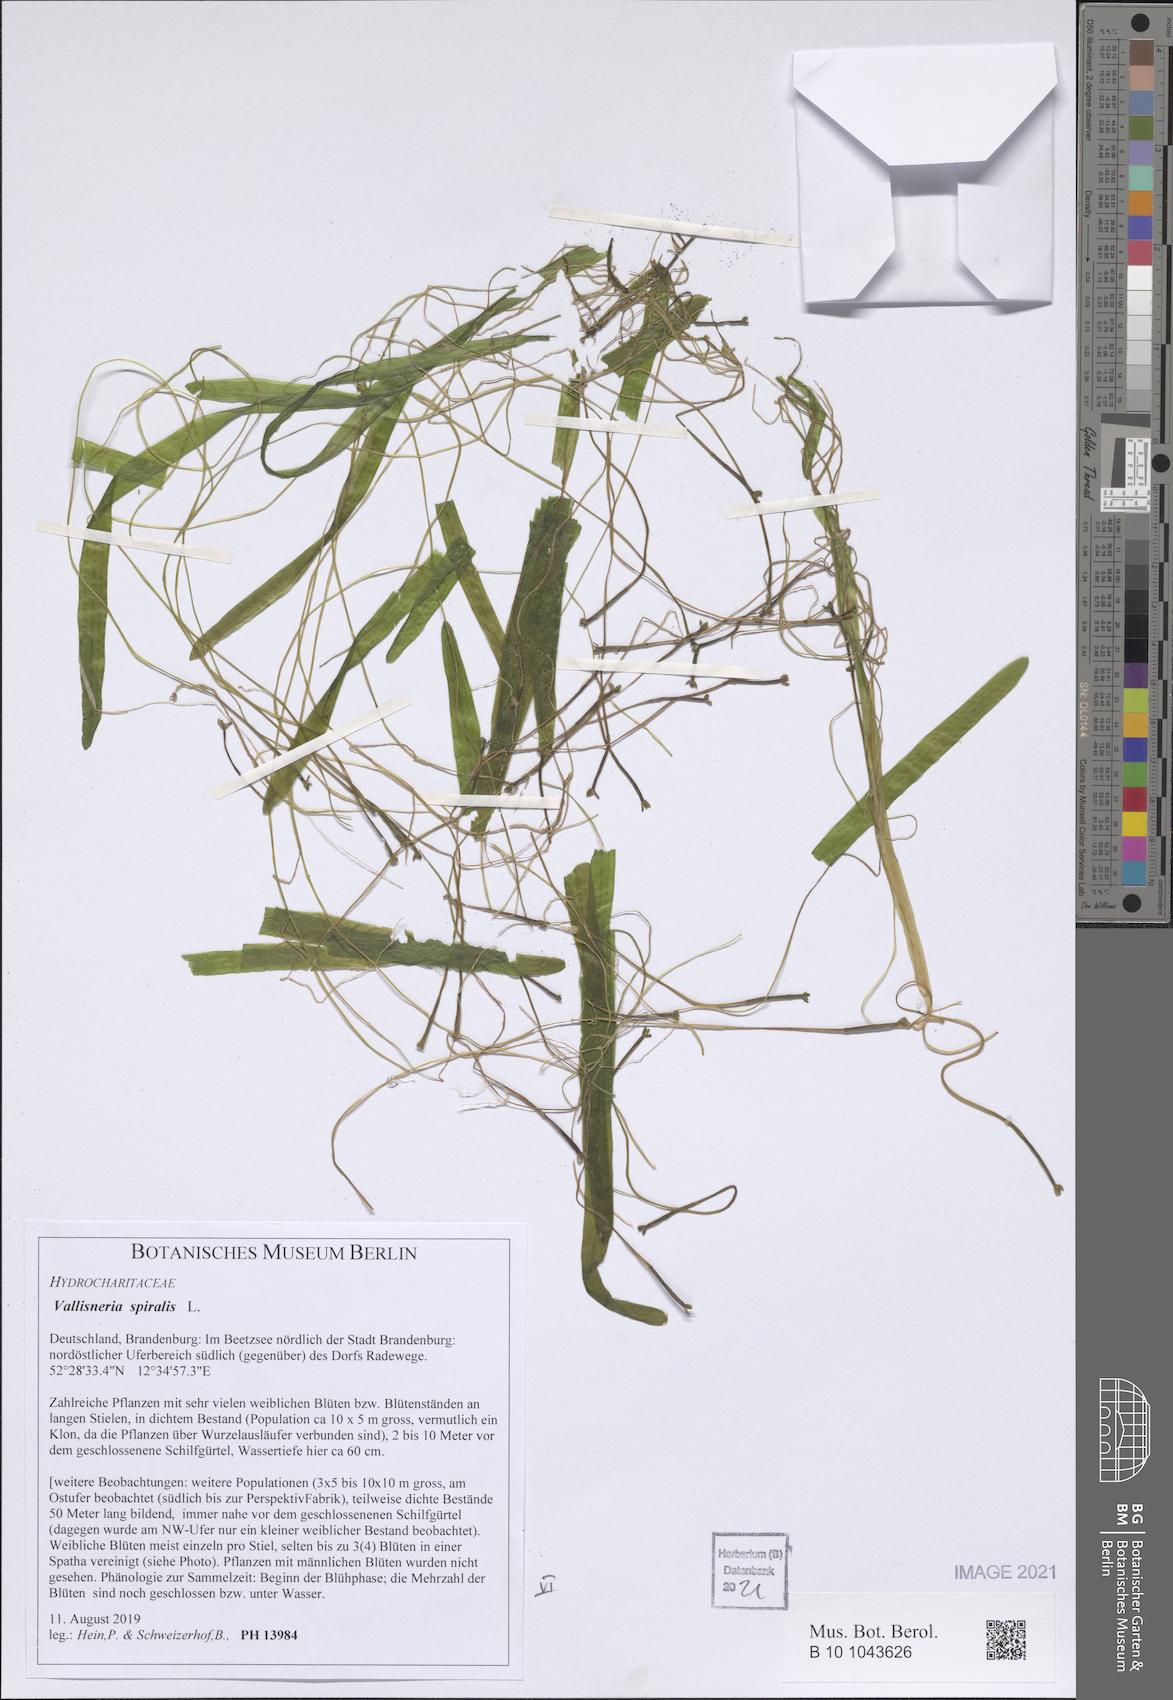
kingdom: Plantae
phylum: Tracheophyta
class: Liliopsida
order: Alismatales
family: Hydrocharitaceae
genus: Vallisneria
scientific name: Vallisneria spiralis
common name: Tapegrass
